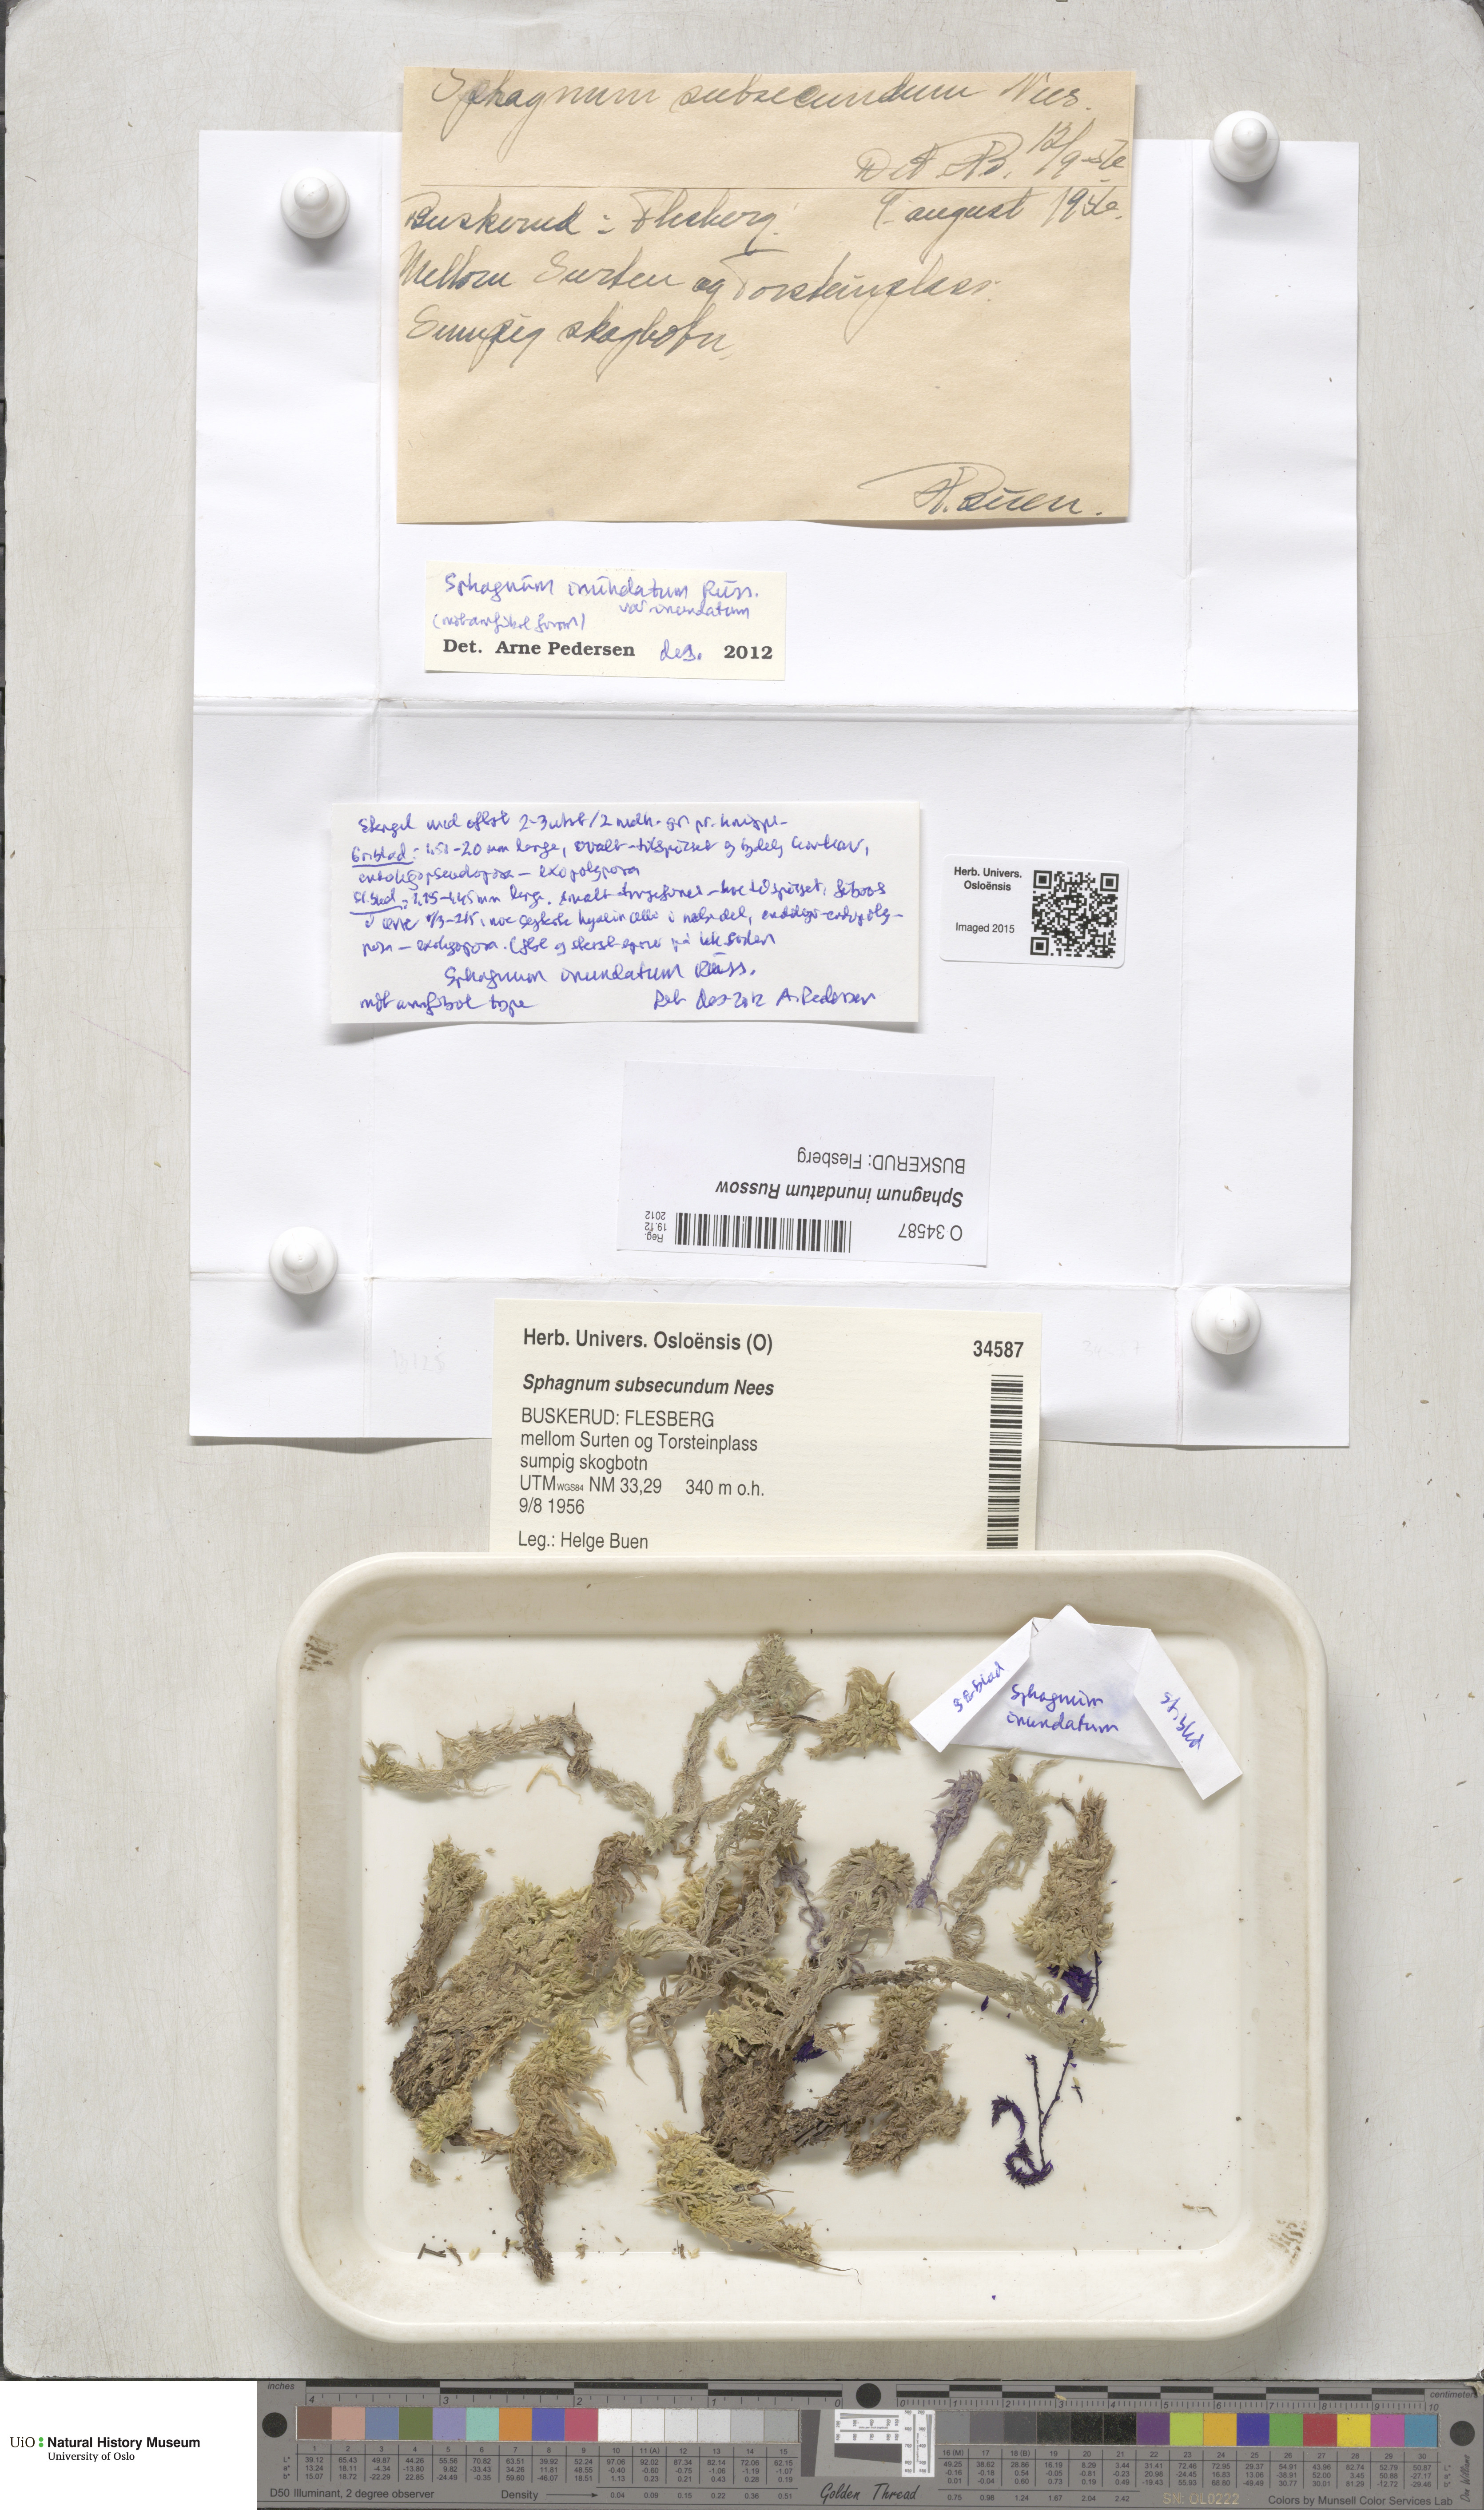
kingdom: Plantae
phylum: Bryophyta
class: Sphagnopsida
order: Sphagnales
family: Sphagnaceae
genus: Sphagnum
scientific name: Sphagnum inundatum
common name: Lesser cow-horn bog-moss
